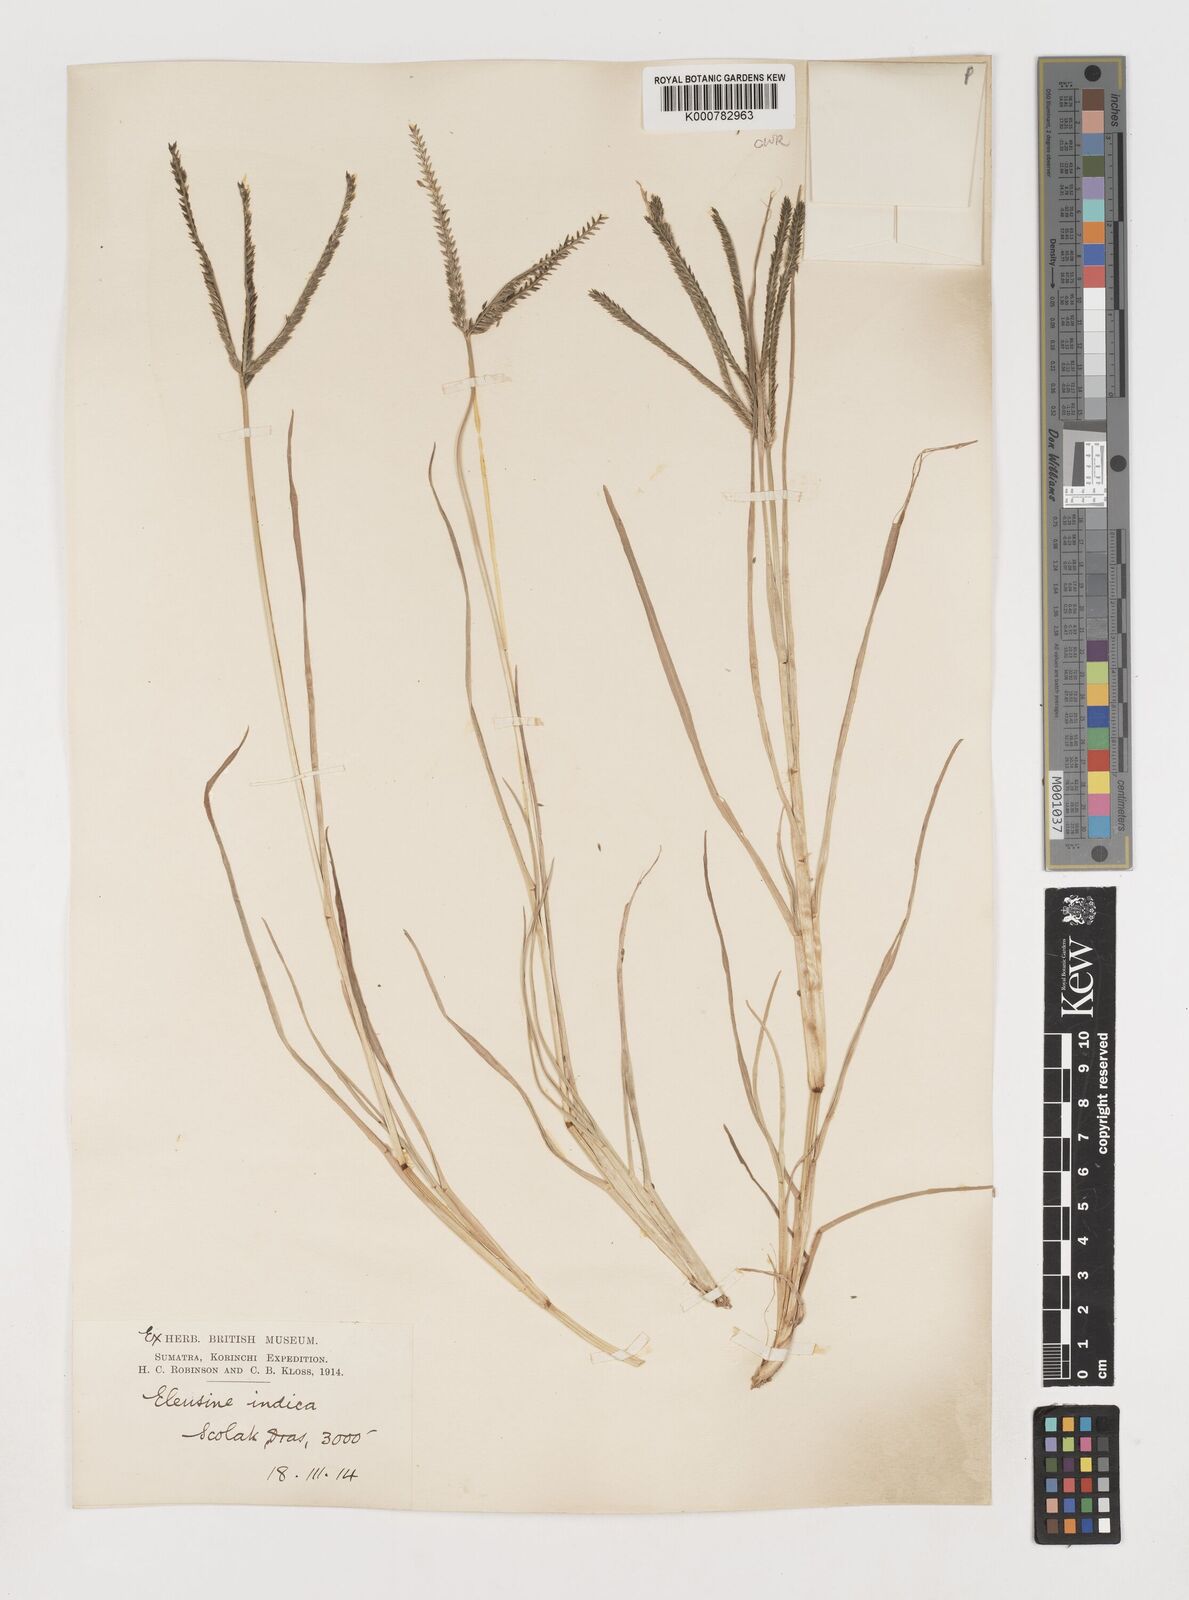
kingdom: Plantae
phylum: Tracheophyta
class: Liliopsida
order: Poales
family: Poaceae
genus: Eleusine
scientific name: Eleusine indica
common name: Yard-grass
